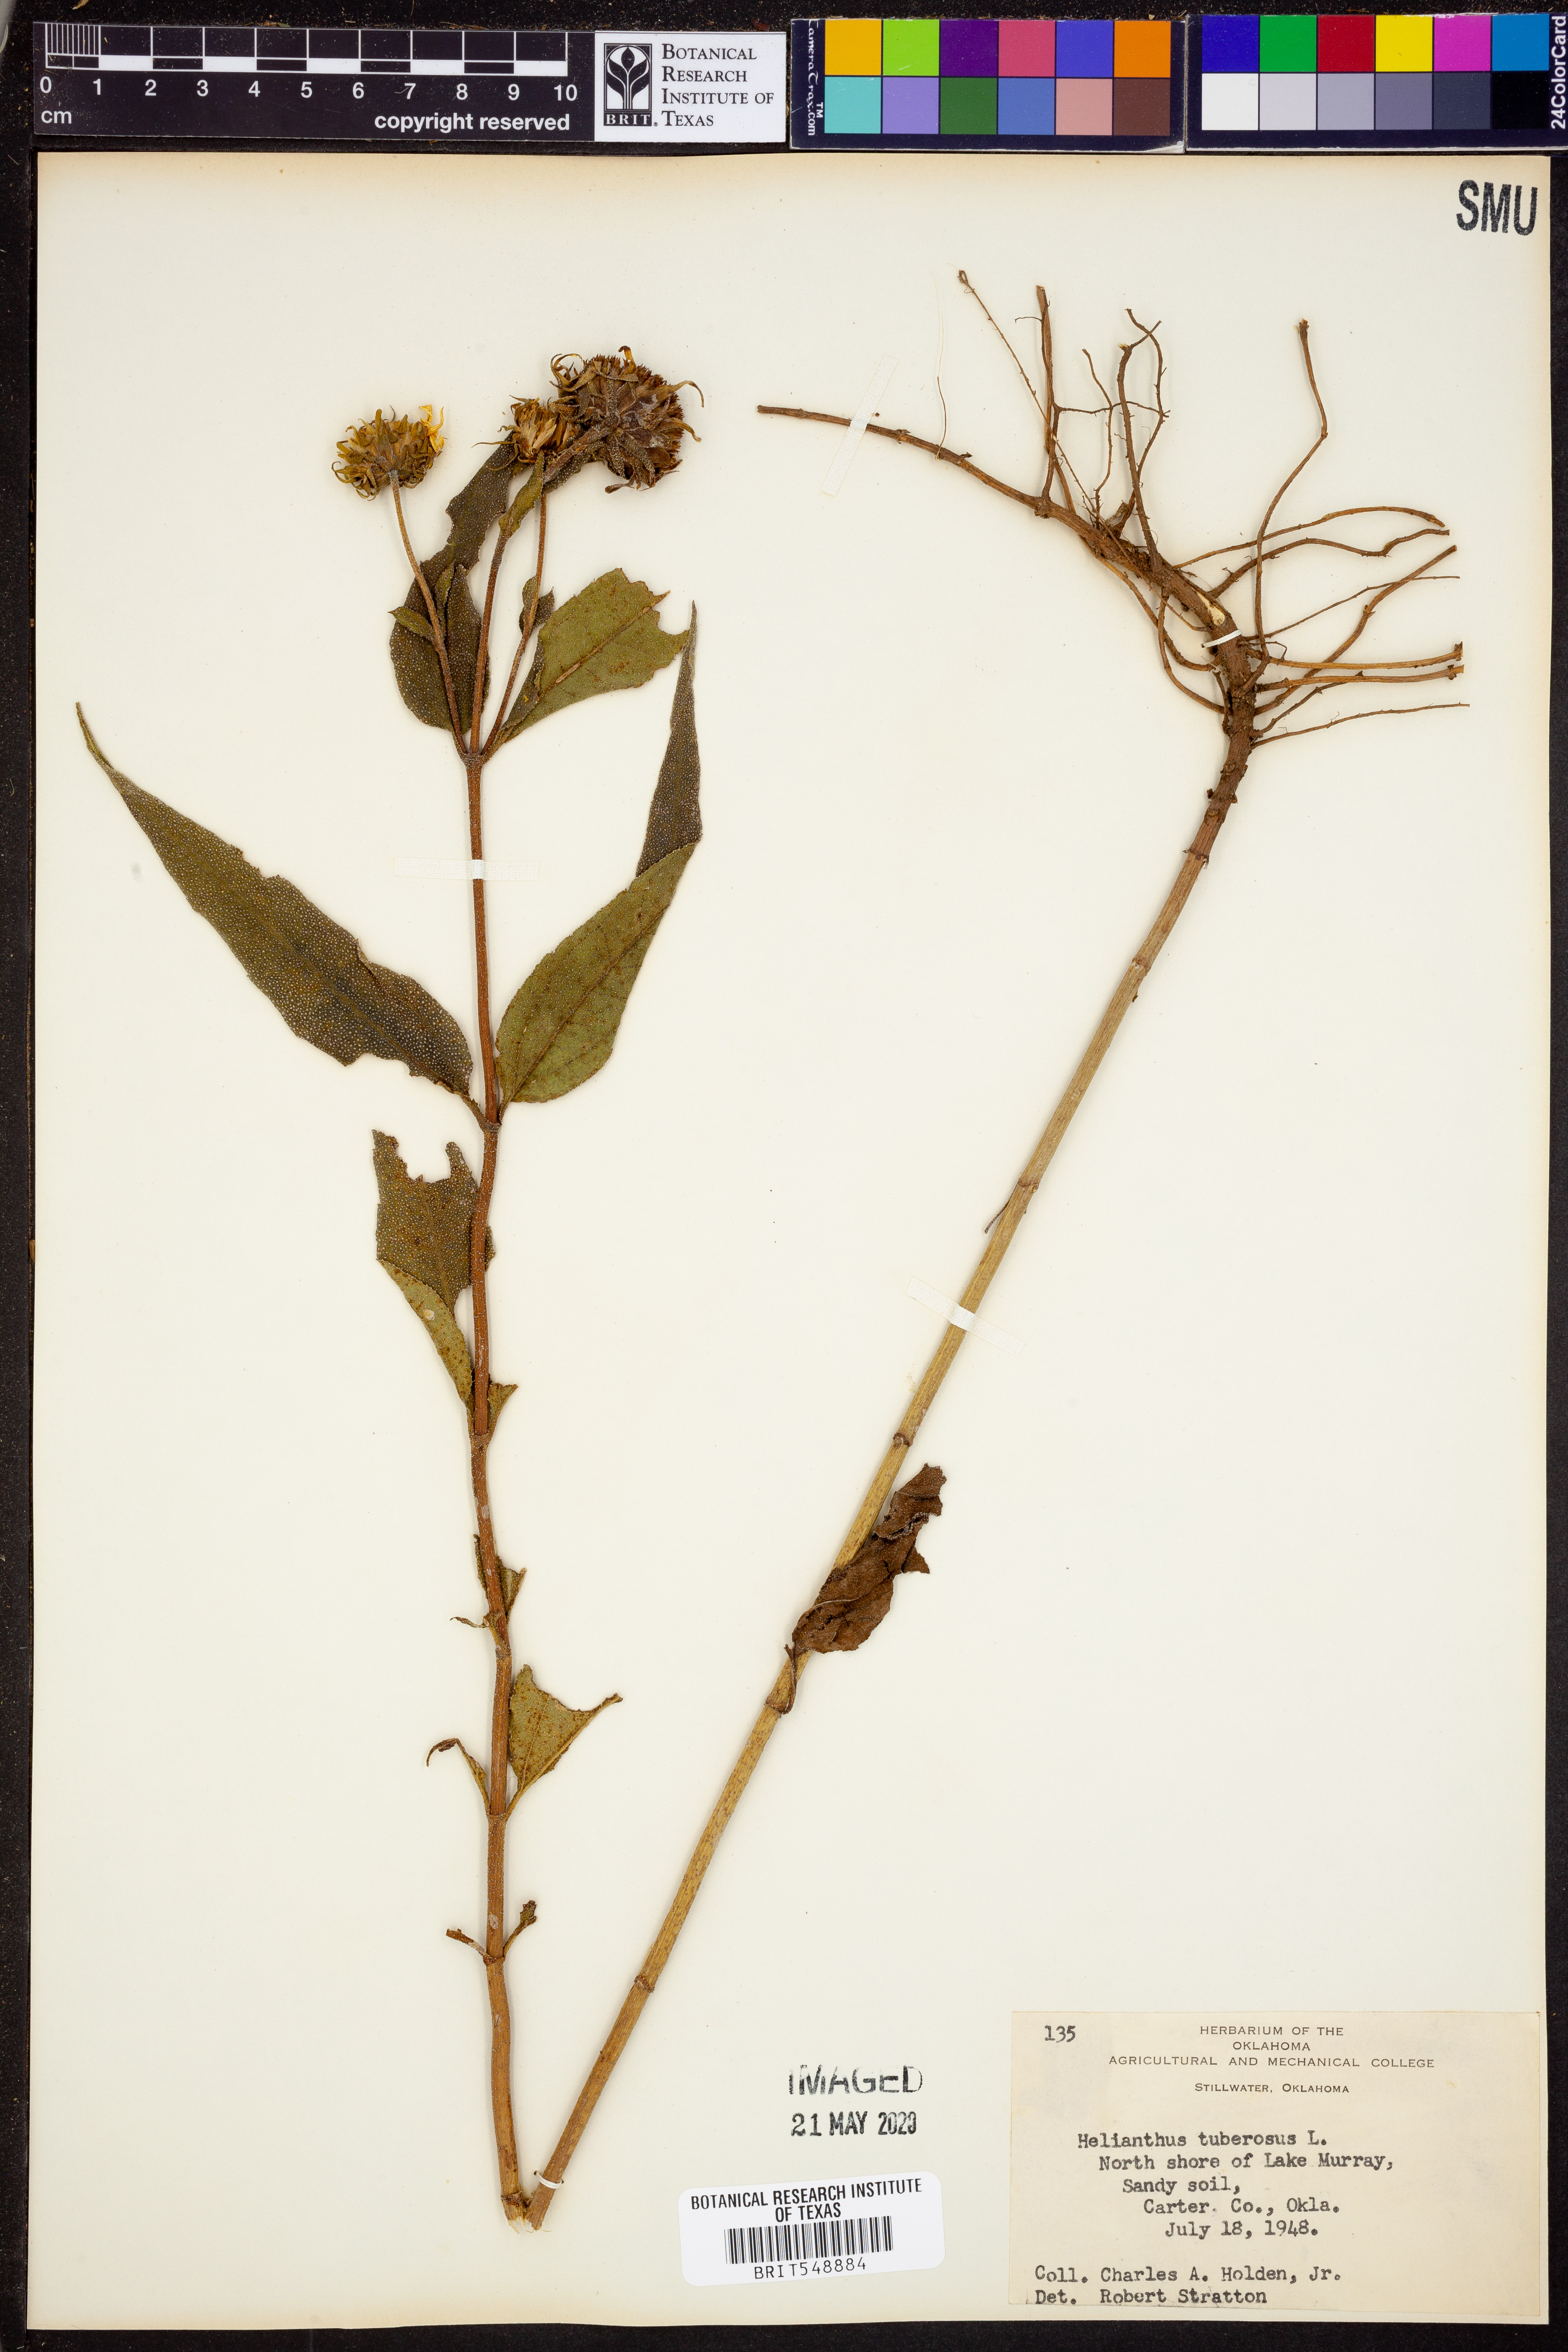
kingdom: Plantae
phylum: Tracheophyta
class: Magnoliopsida
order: Asterales
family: Asteraceae
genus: Helianthus
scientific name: Helianthus tuberosus
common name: Jerusalem artichoke
